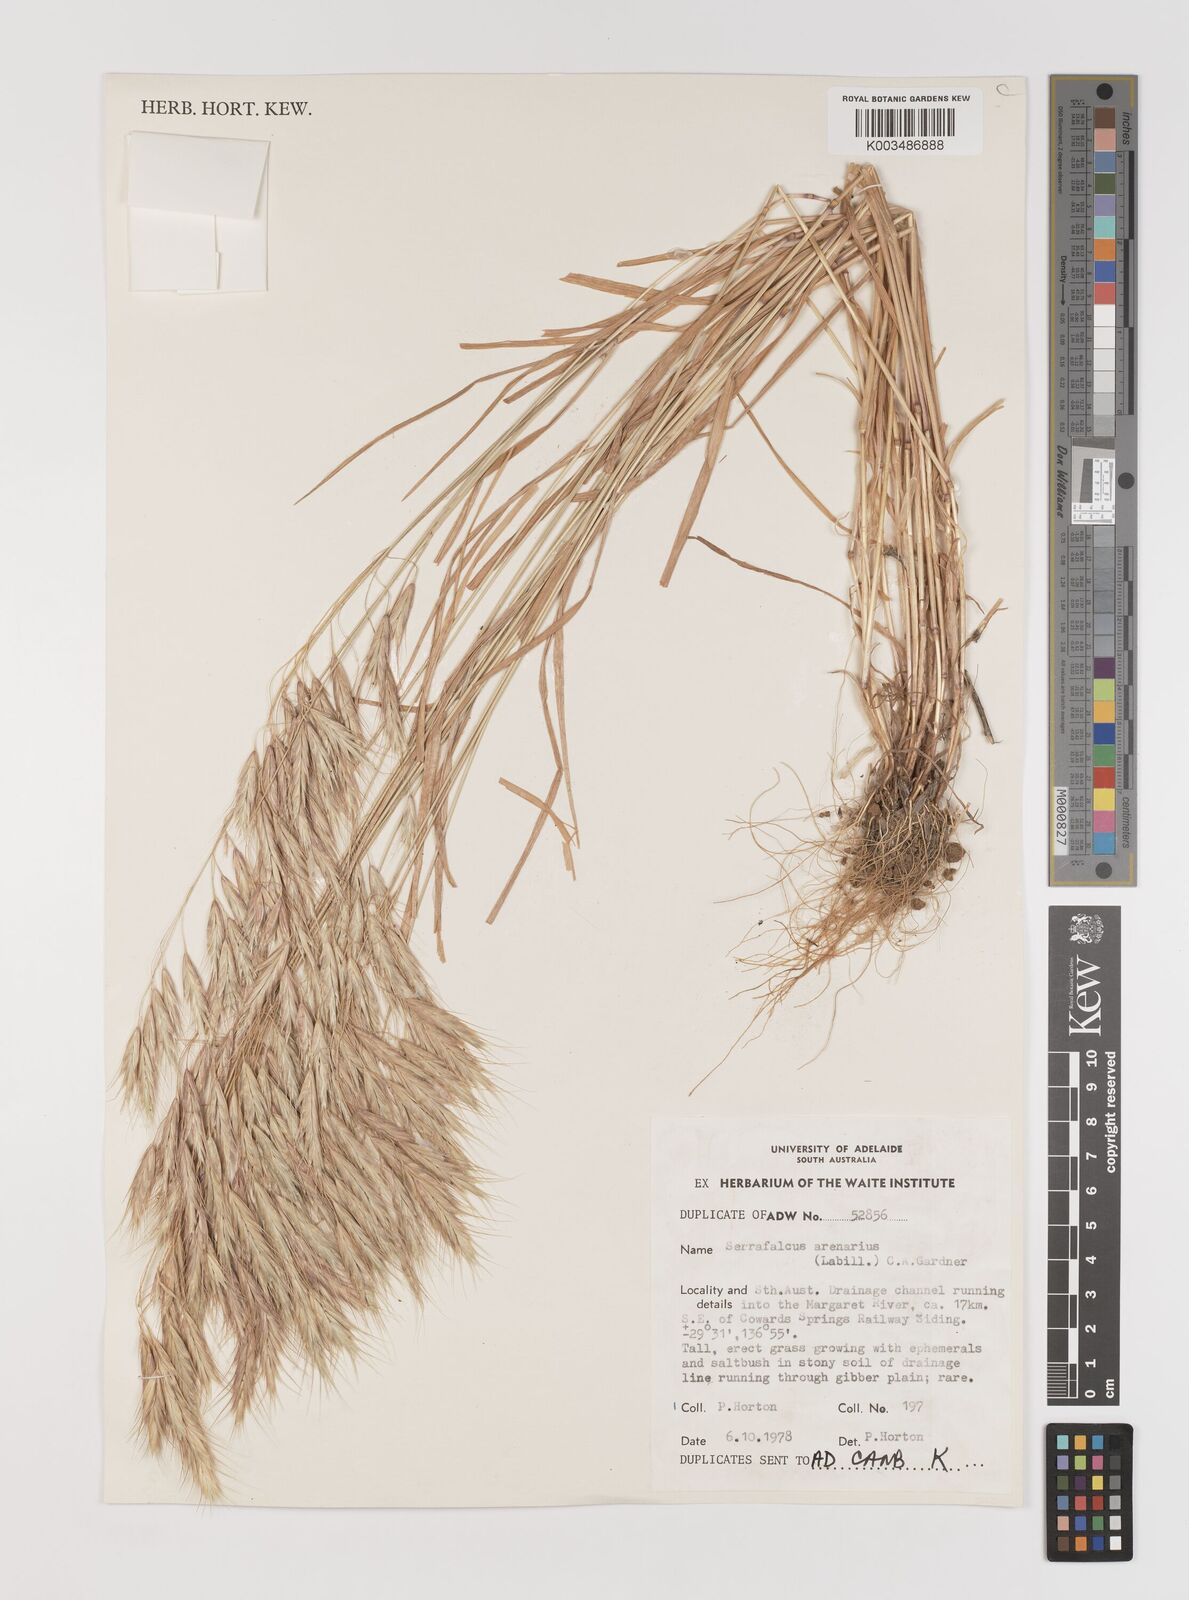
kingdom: Plantae
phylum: Tracheophyta
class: Liliopsida
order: Poales
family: Poaceae
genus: Bromus
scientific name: Bromus arenarius
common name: Australian brome
